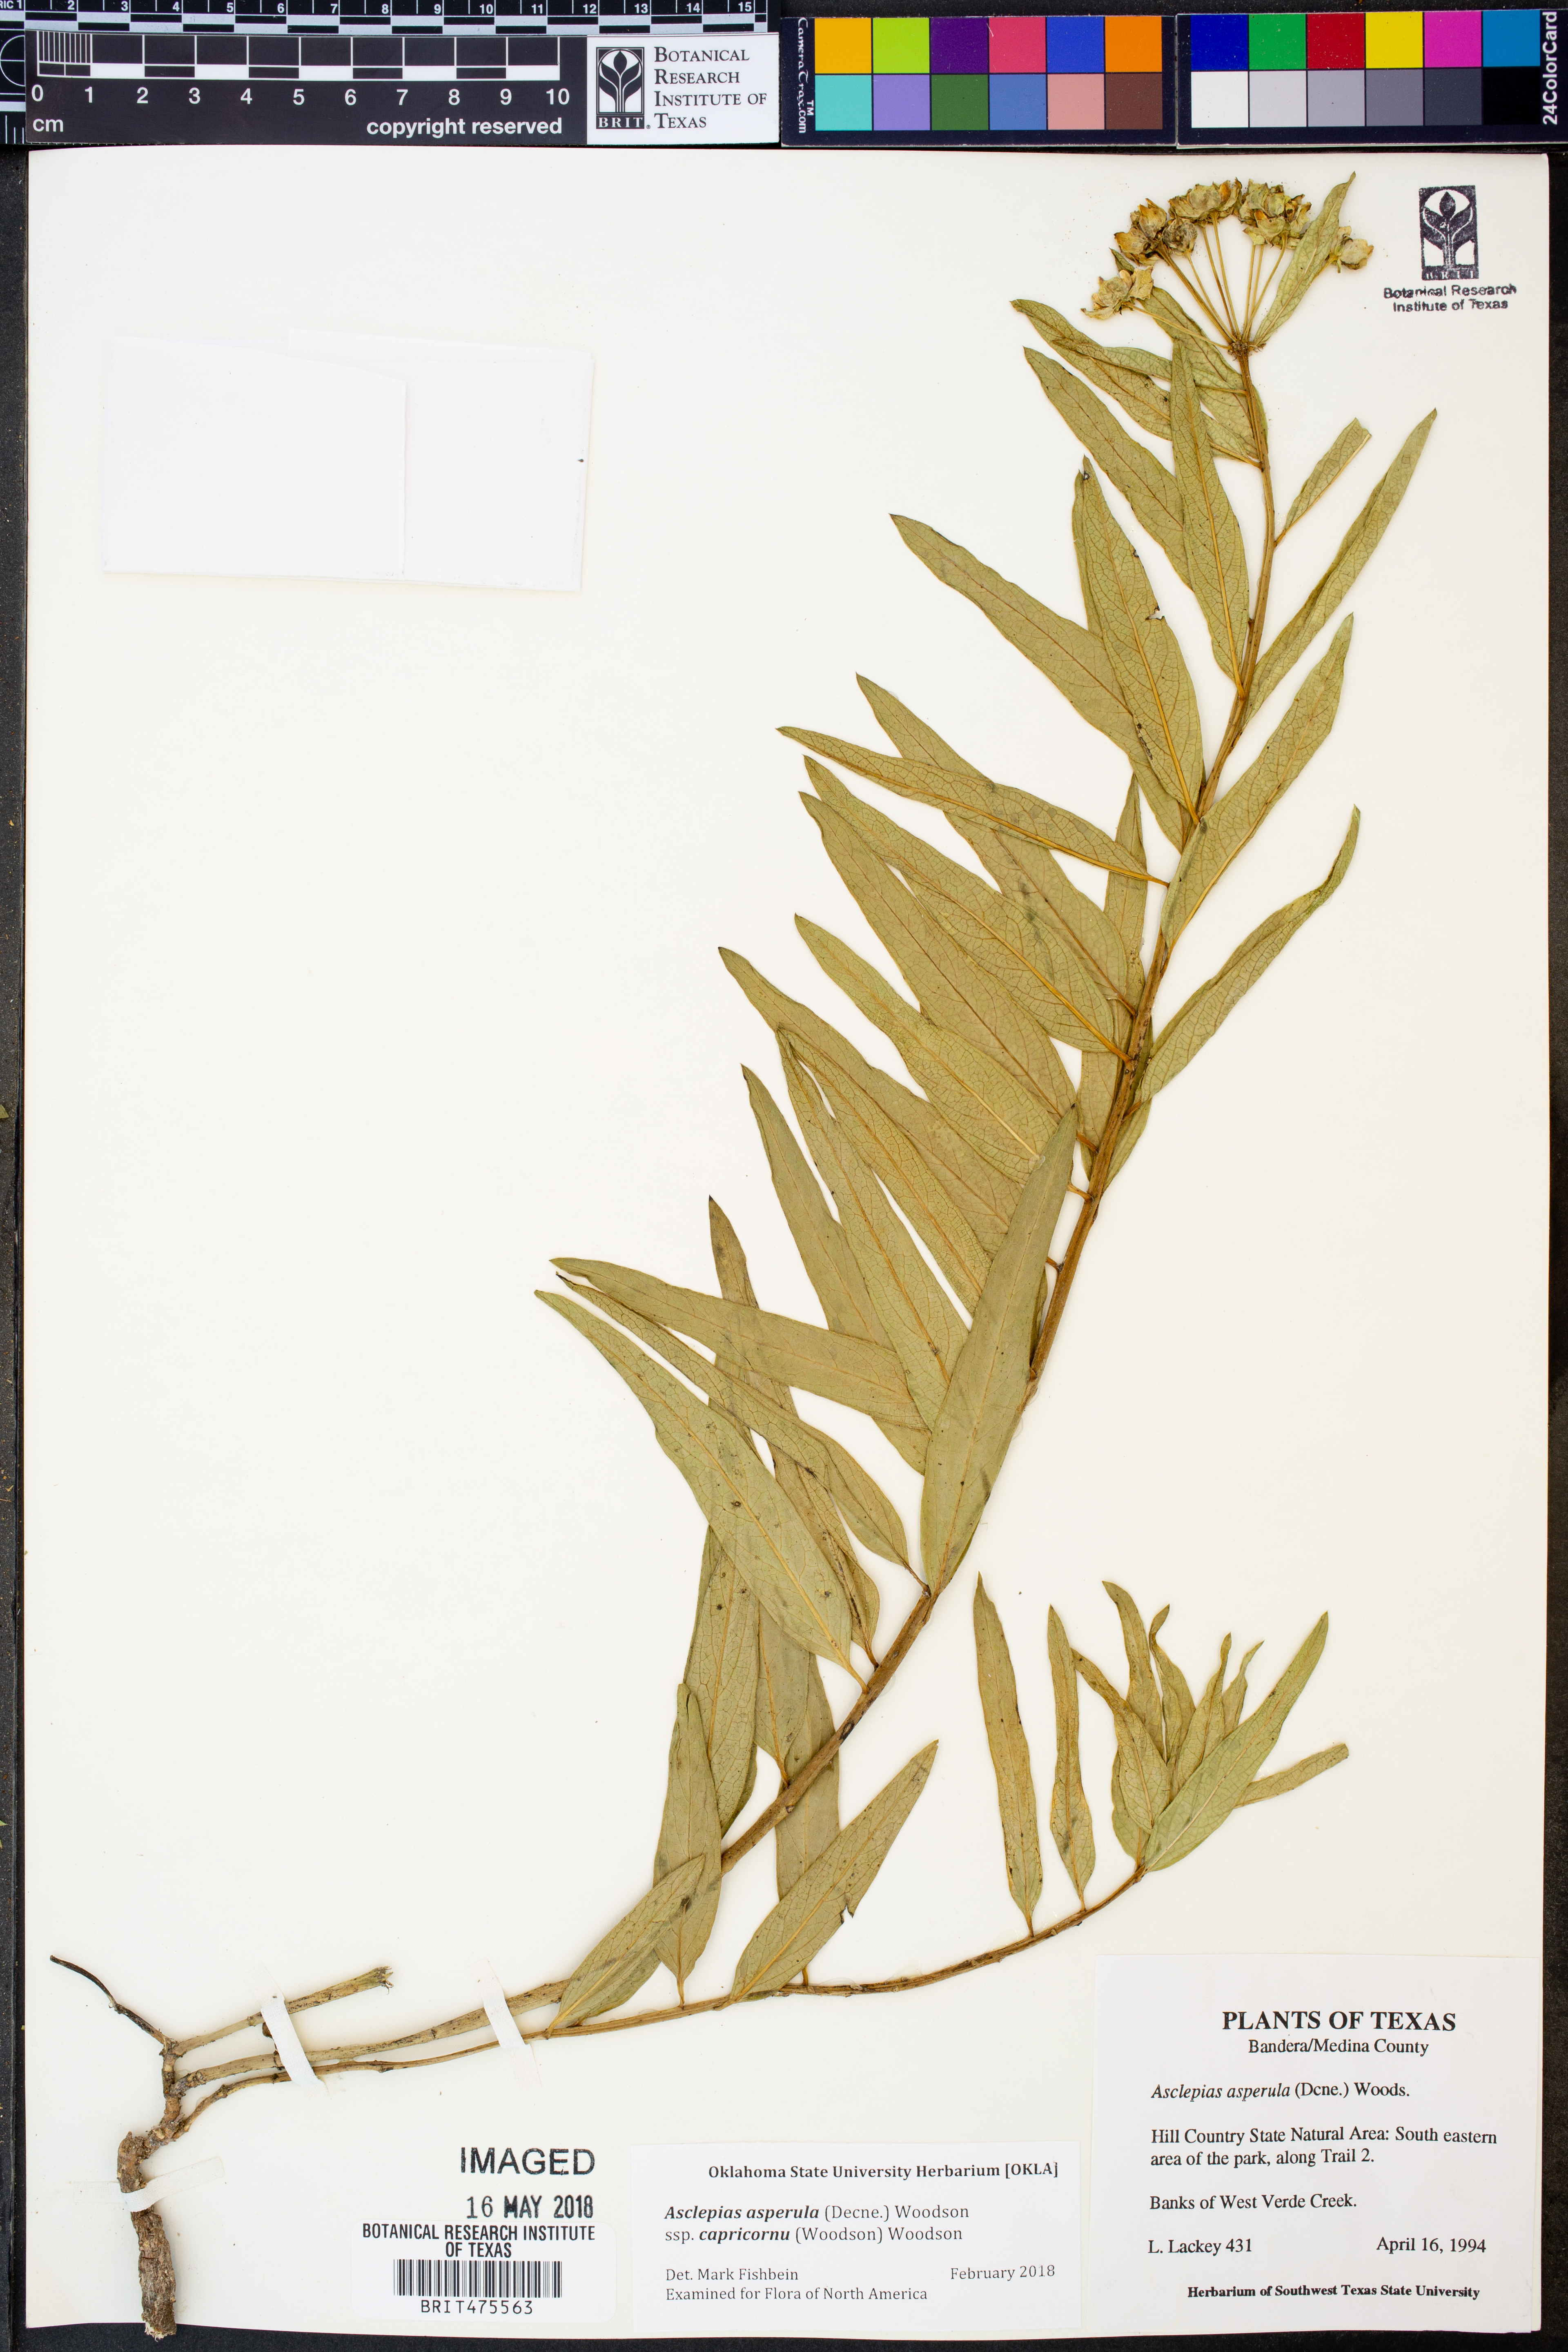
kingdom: Plantae
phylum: Tracheophyta
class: Magnoliopsida
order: Gentianales
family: Apocynaceae
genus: Asclepias
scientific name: Asclepias asperula
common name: Antelope horns
